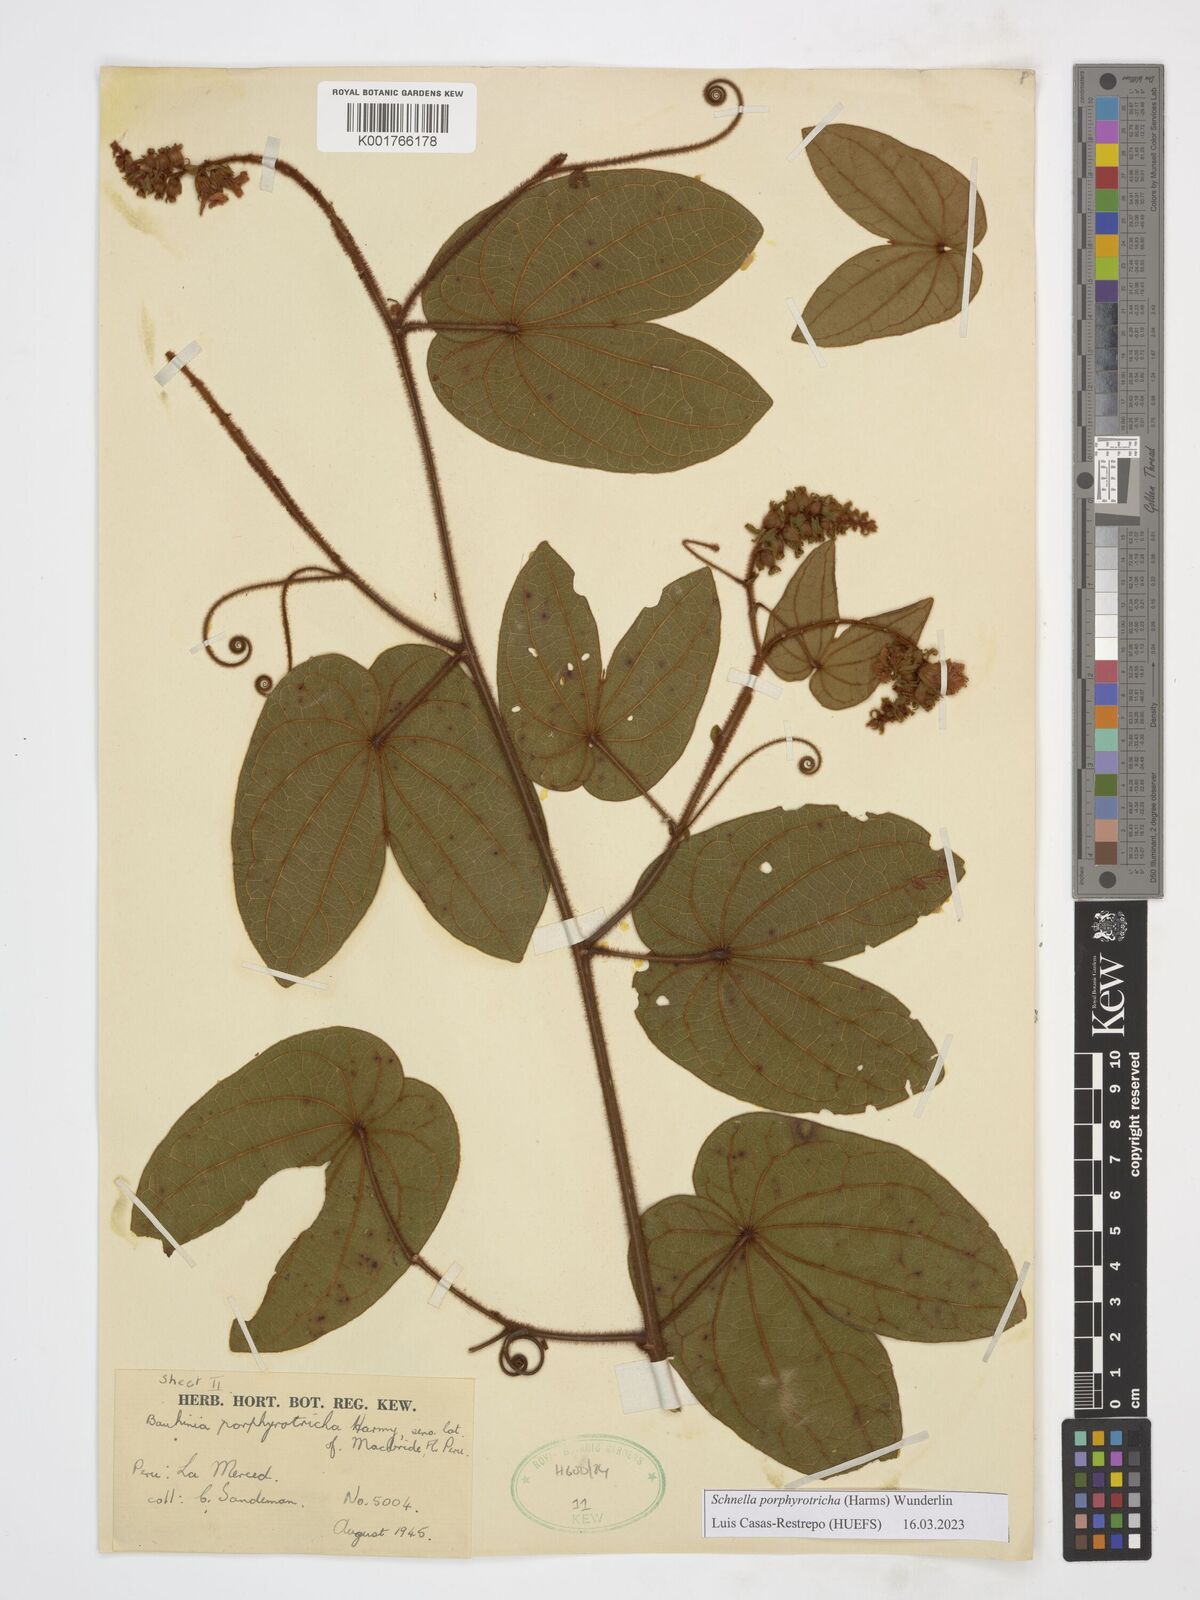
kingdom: Plantae
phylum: Tracheophyta
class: Magnoliopsida
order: Fabales
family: Fabaceae
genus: Schnella
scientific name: Schnella porphyrotricha
